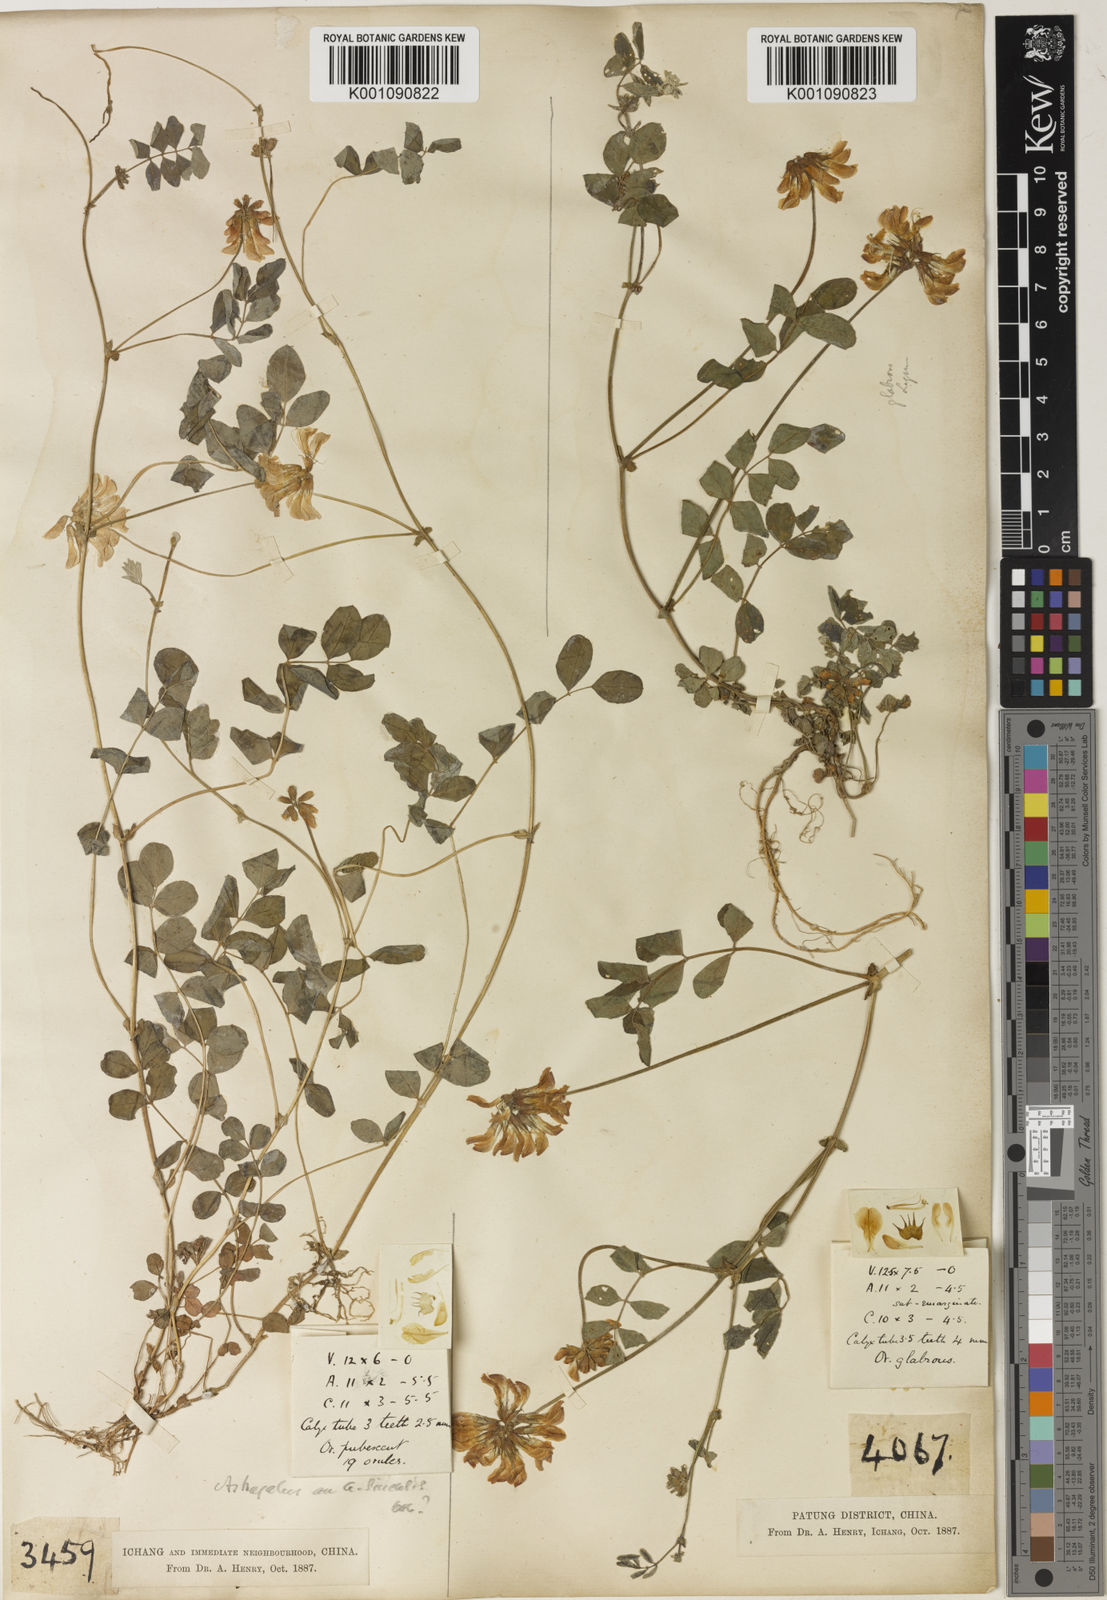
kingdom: Plantae
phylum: Tracheophyta
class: Magnoliopsida
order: Fabales
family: Fabaceae
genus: Astragalus
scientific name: Astragalus sinicus
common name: Chinese milk-vetch
